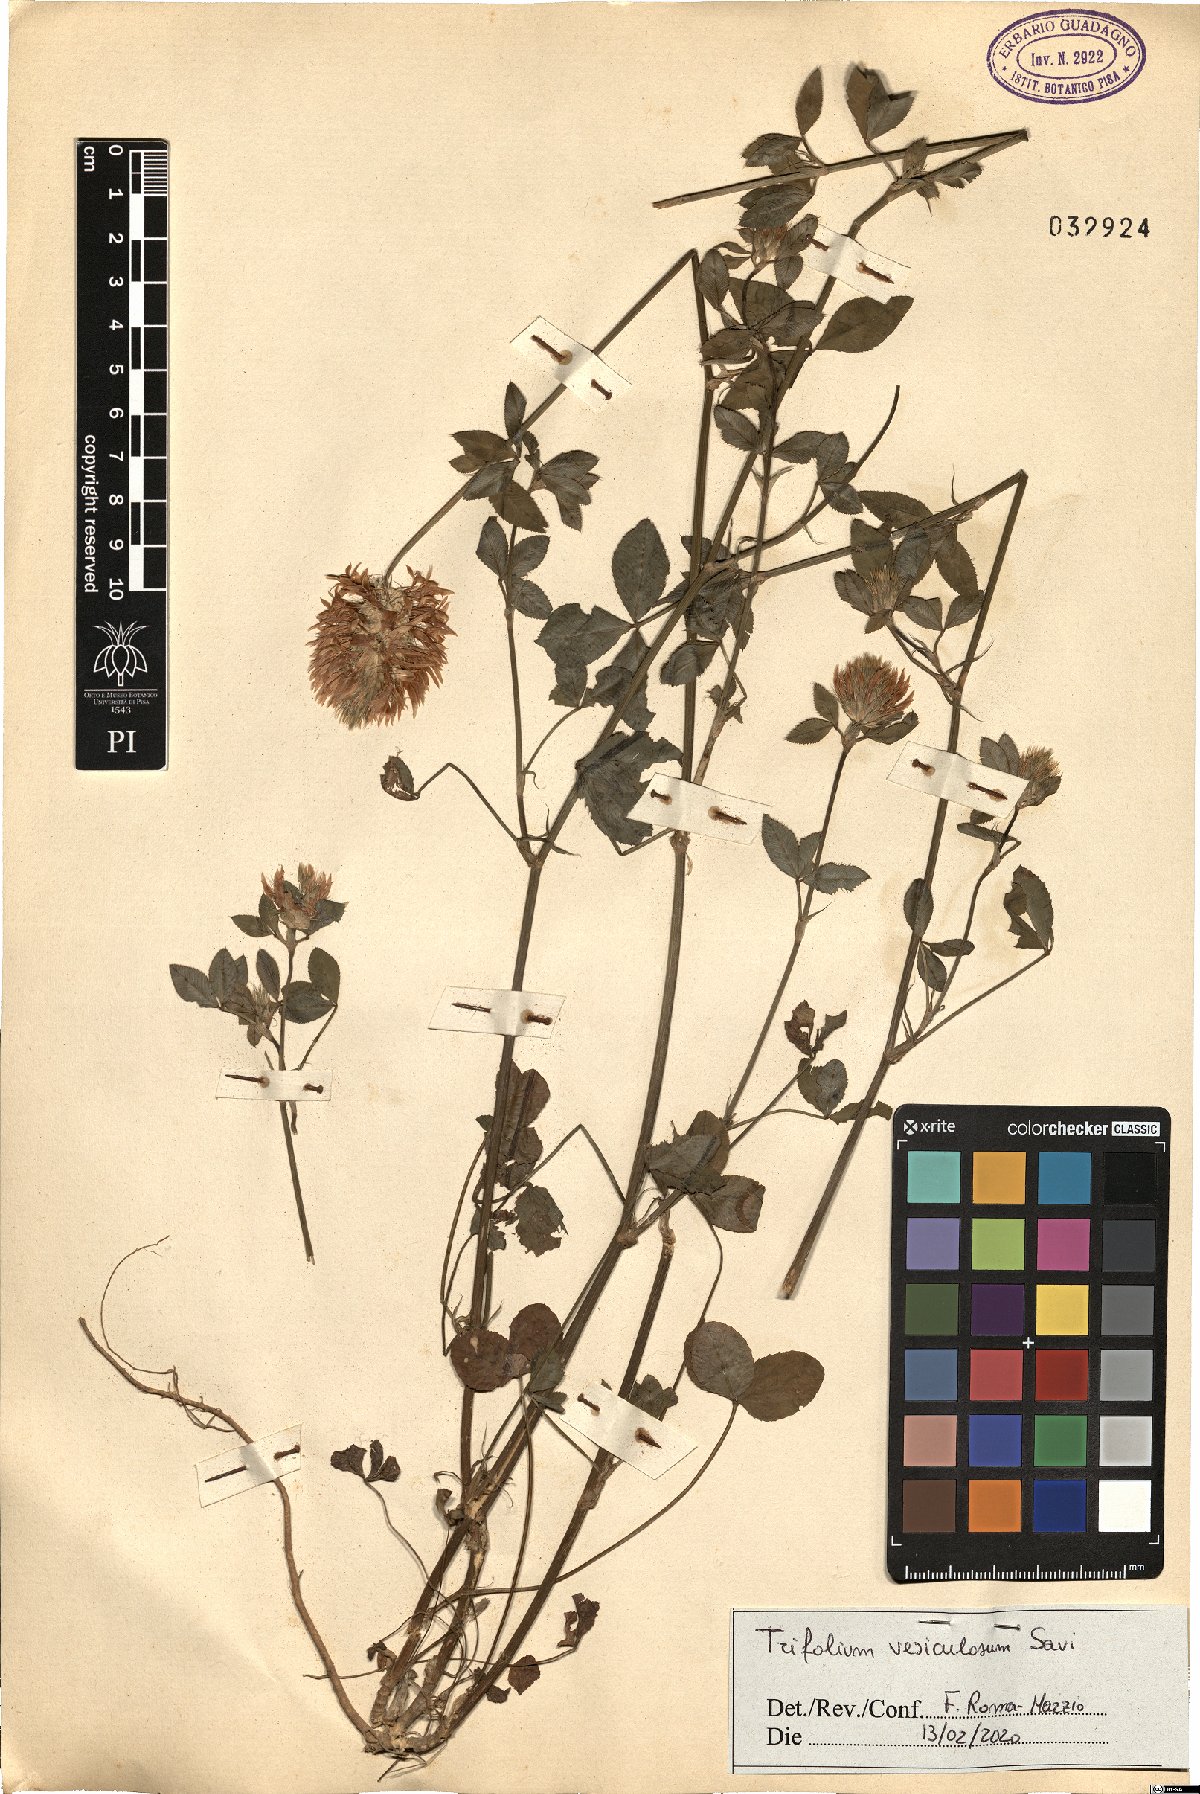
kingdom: Plantae
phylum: Tracheophyta
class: Magnoliopsida
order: Fabales
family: Fabaceae
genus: Trifolium
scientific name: Trifolium vesiculosum
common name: Arrowleaf clover
